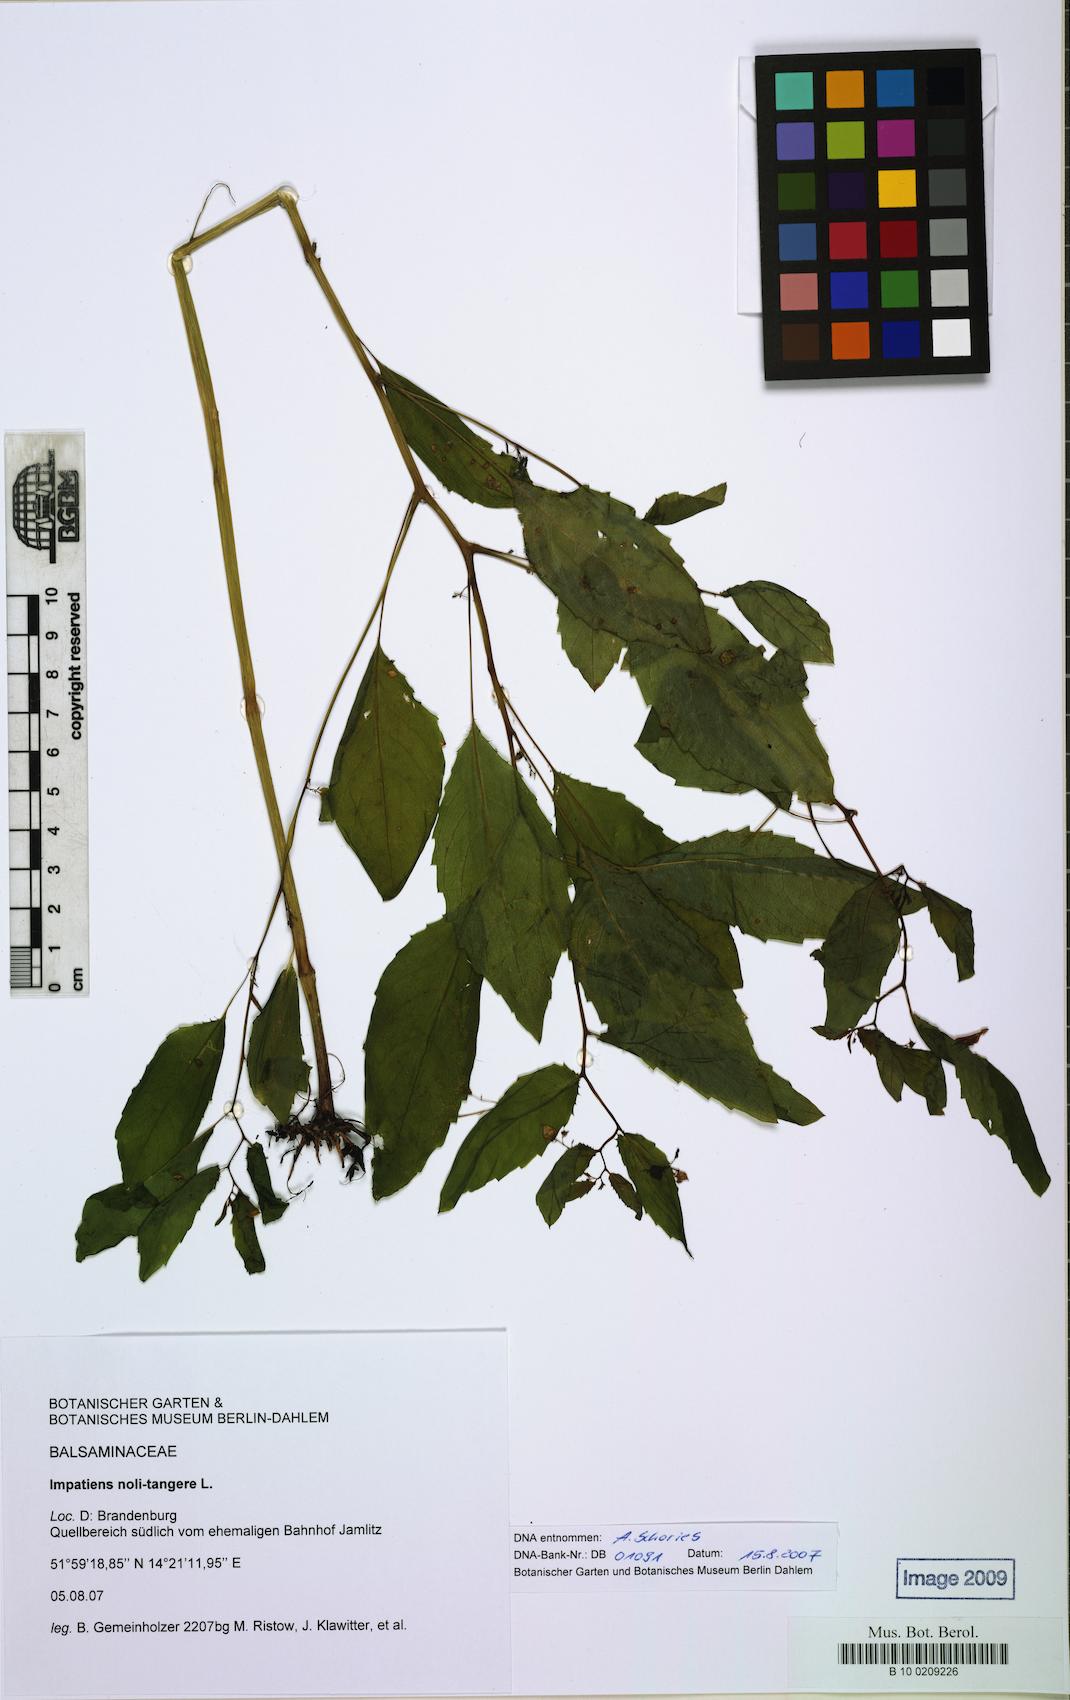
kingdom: Plantae
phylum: Tracheophyta
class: Magnoliopsida
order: Ericales
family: Balsaminaceae
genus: Impatiens
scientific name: Impatiens noli-tangere
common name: Touch-me-not balsam
